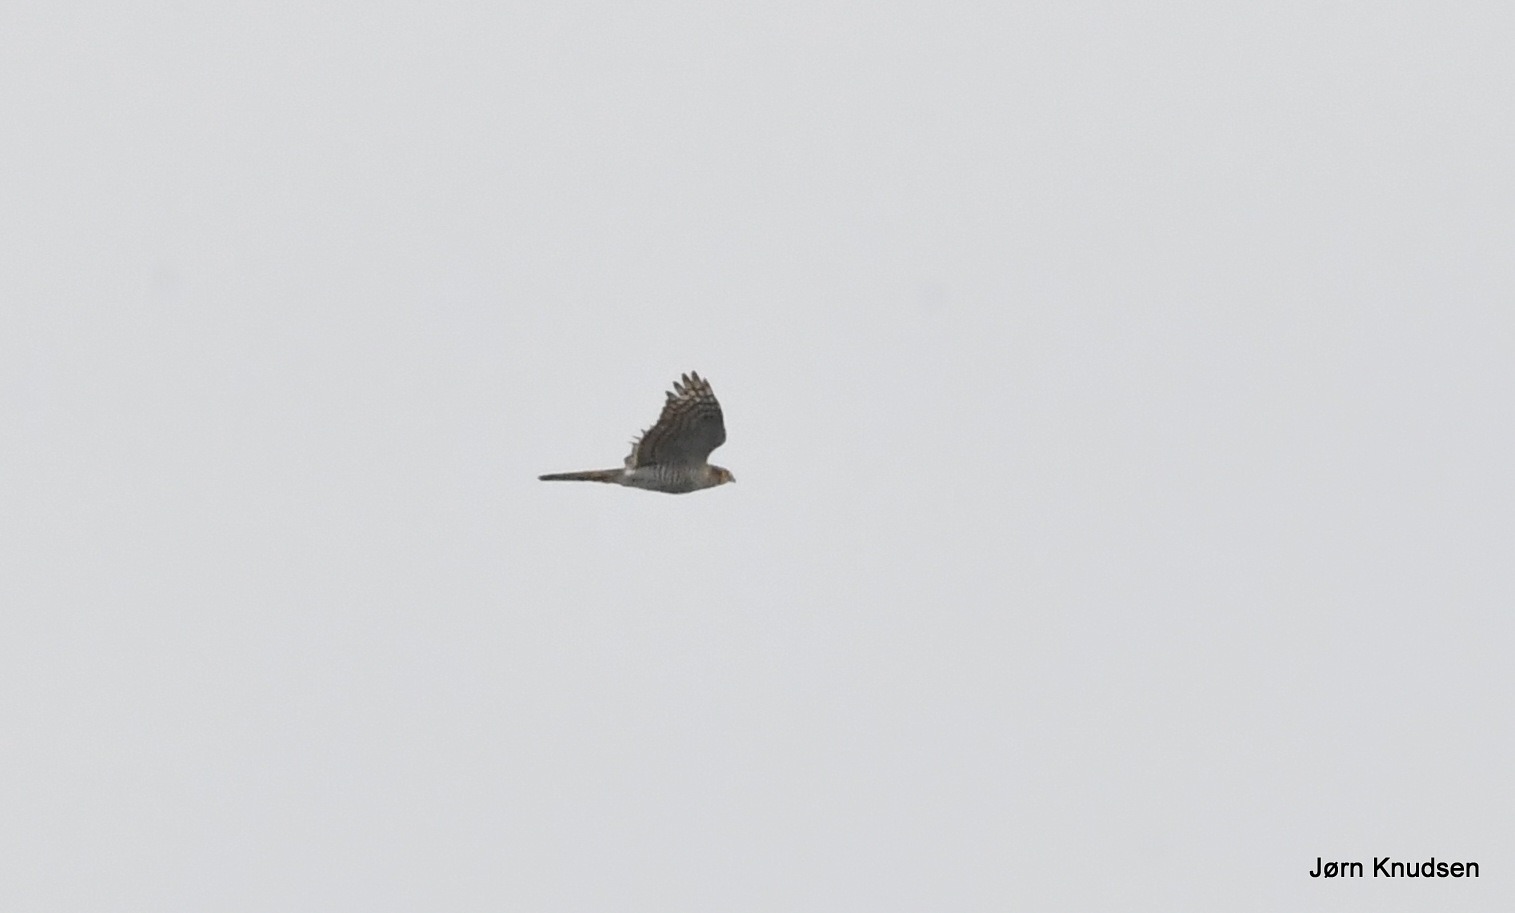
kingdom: Animalia
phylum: Chordata
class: Aves
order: Accipitriformes
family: Accipitridae
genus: Accipiter
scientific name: Accipiter nisus
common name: Spurvehøg
